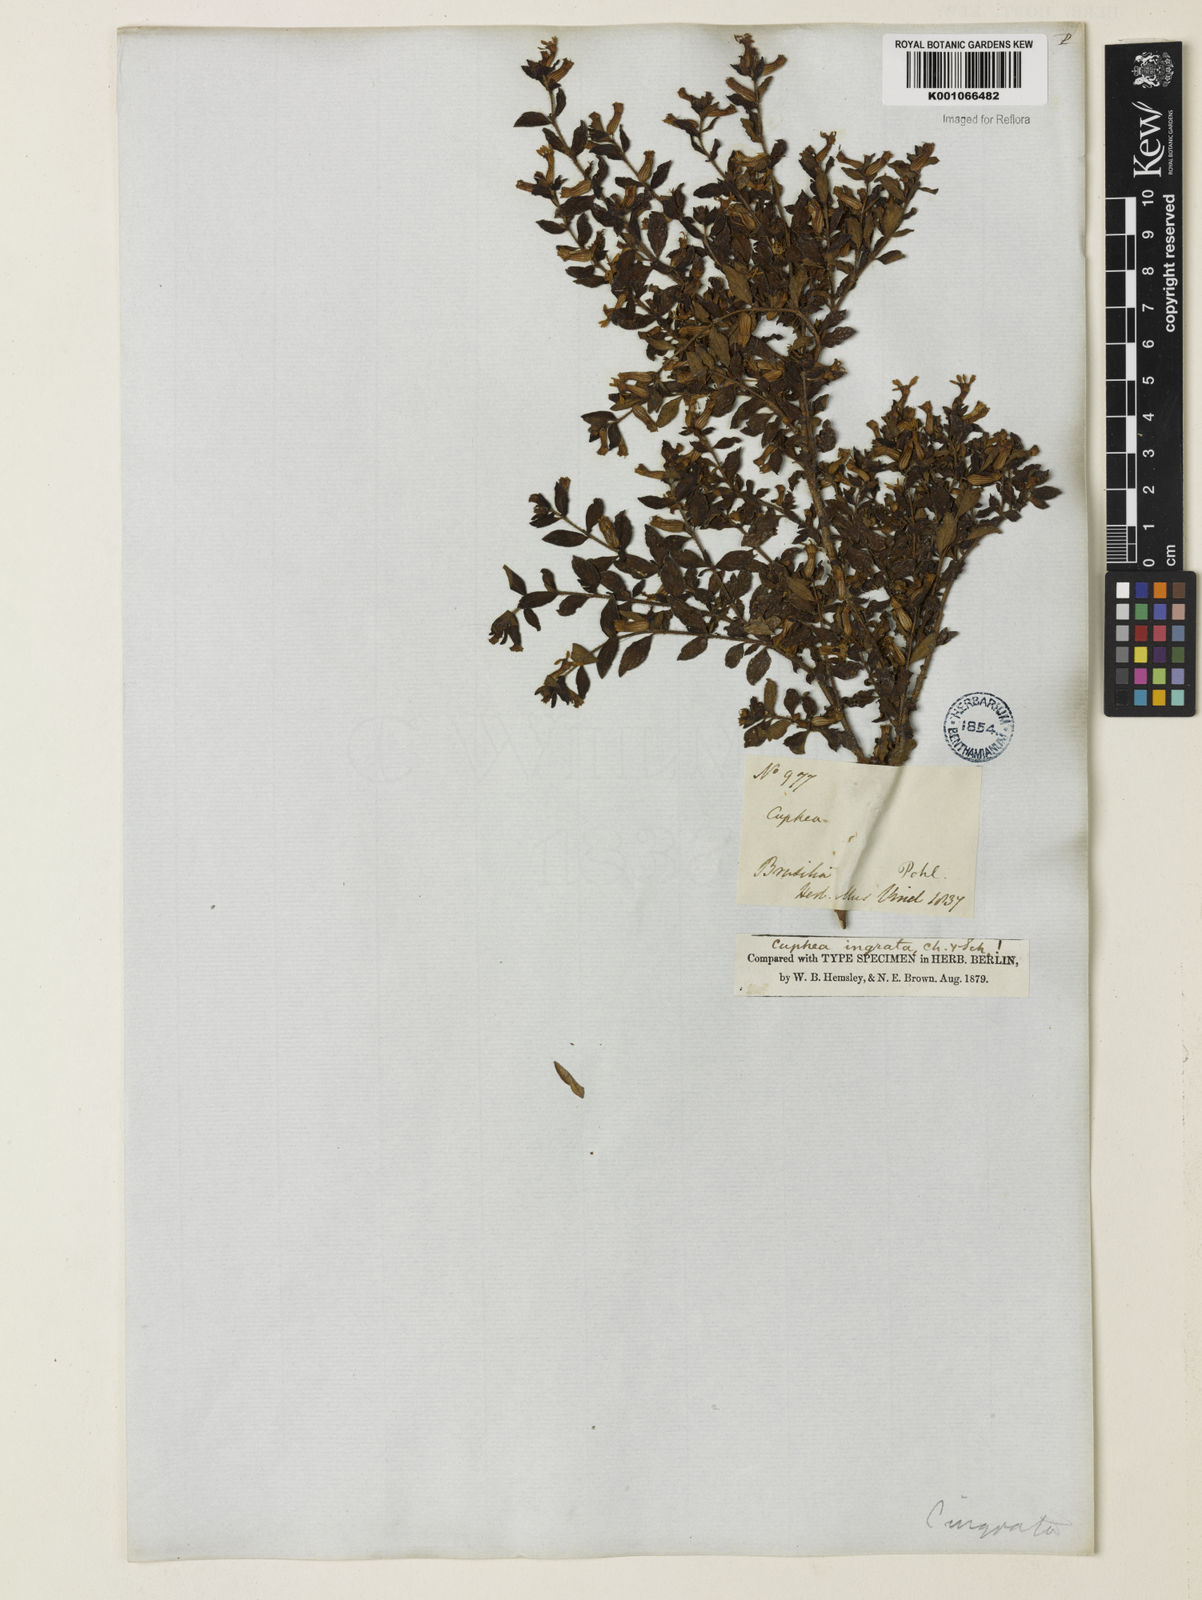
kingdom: Plantae
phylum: Tracheophyta
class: Magnoliopsida
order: Myrtales
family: Lythraceae
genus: Cuphea
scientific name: Cuphea ingrata
